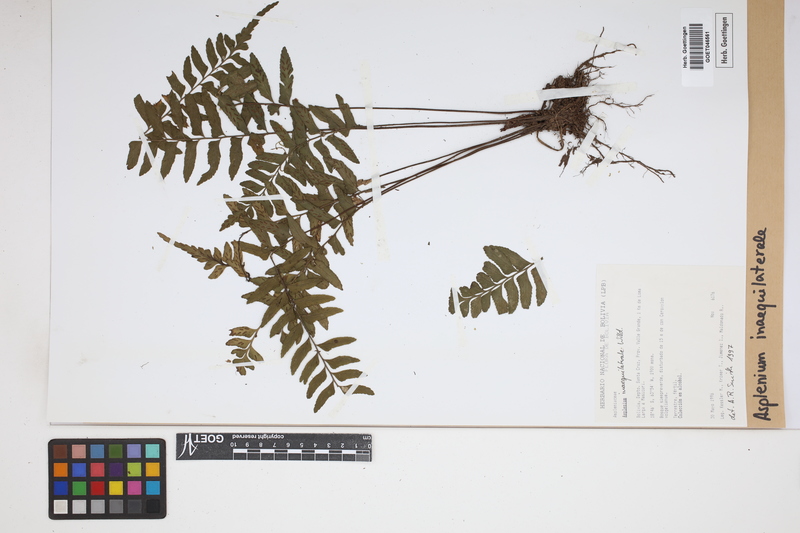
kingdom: Plantae
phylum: Tracheophyta
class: Polypodiopsida
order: Polypodiales
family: Aspleniaceae
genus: Asplenium
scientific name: Asplenium inaequilaterale
